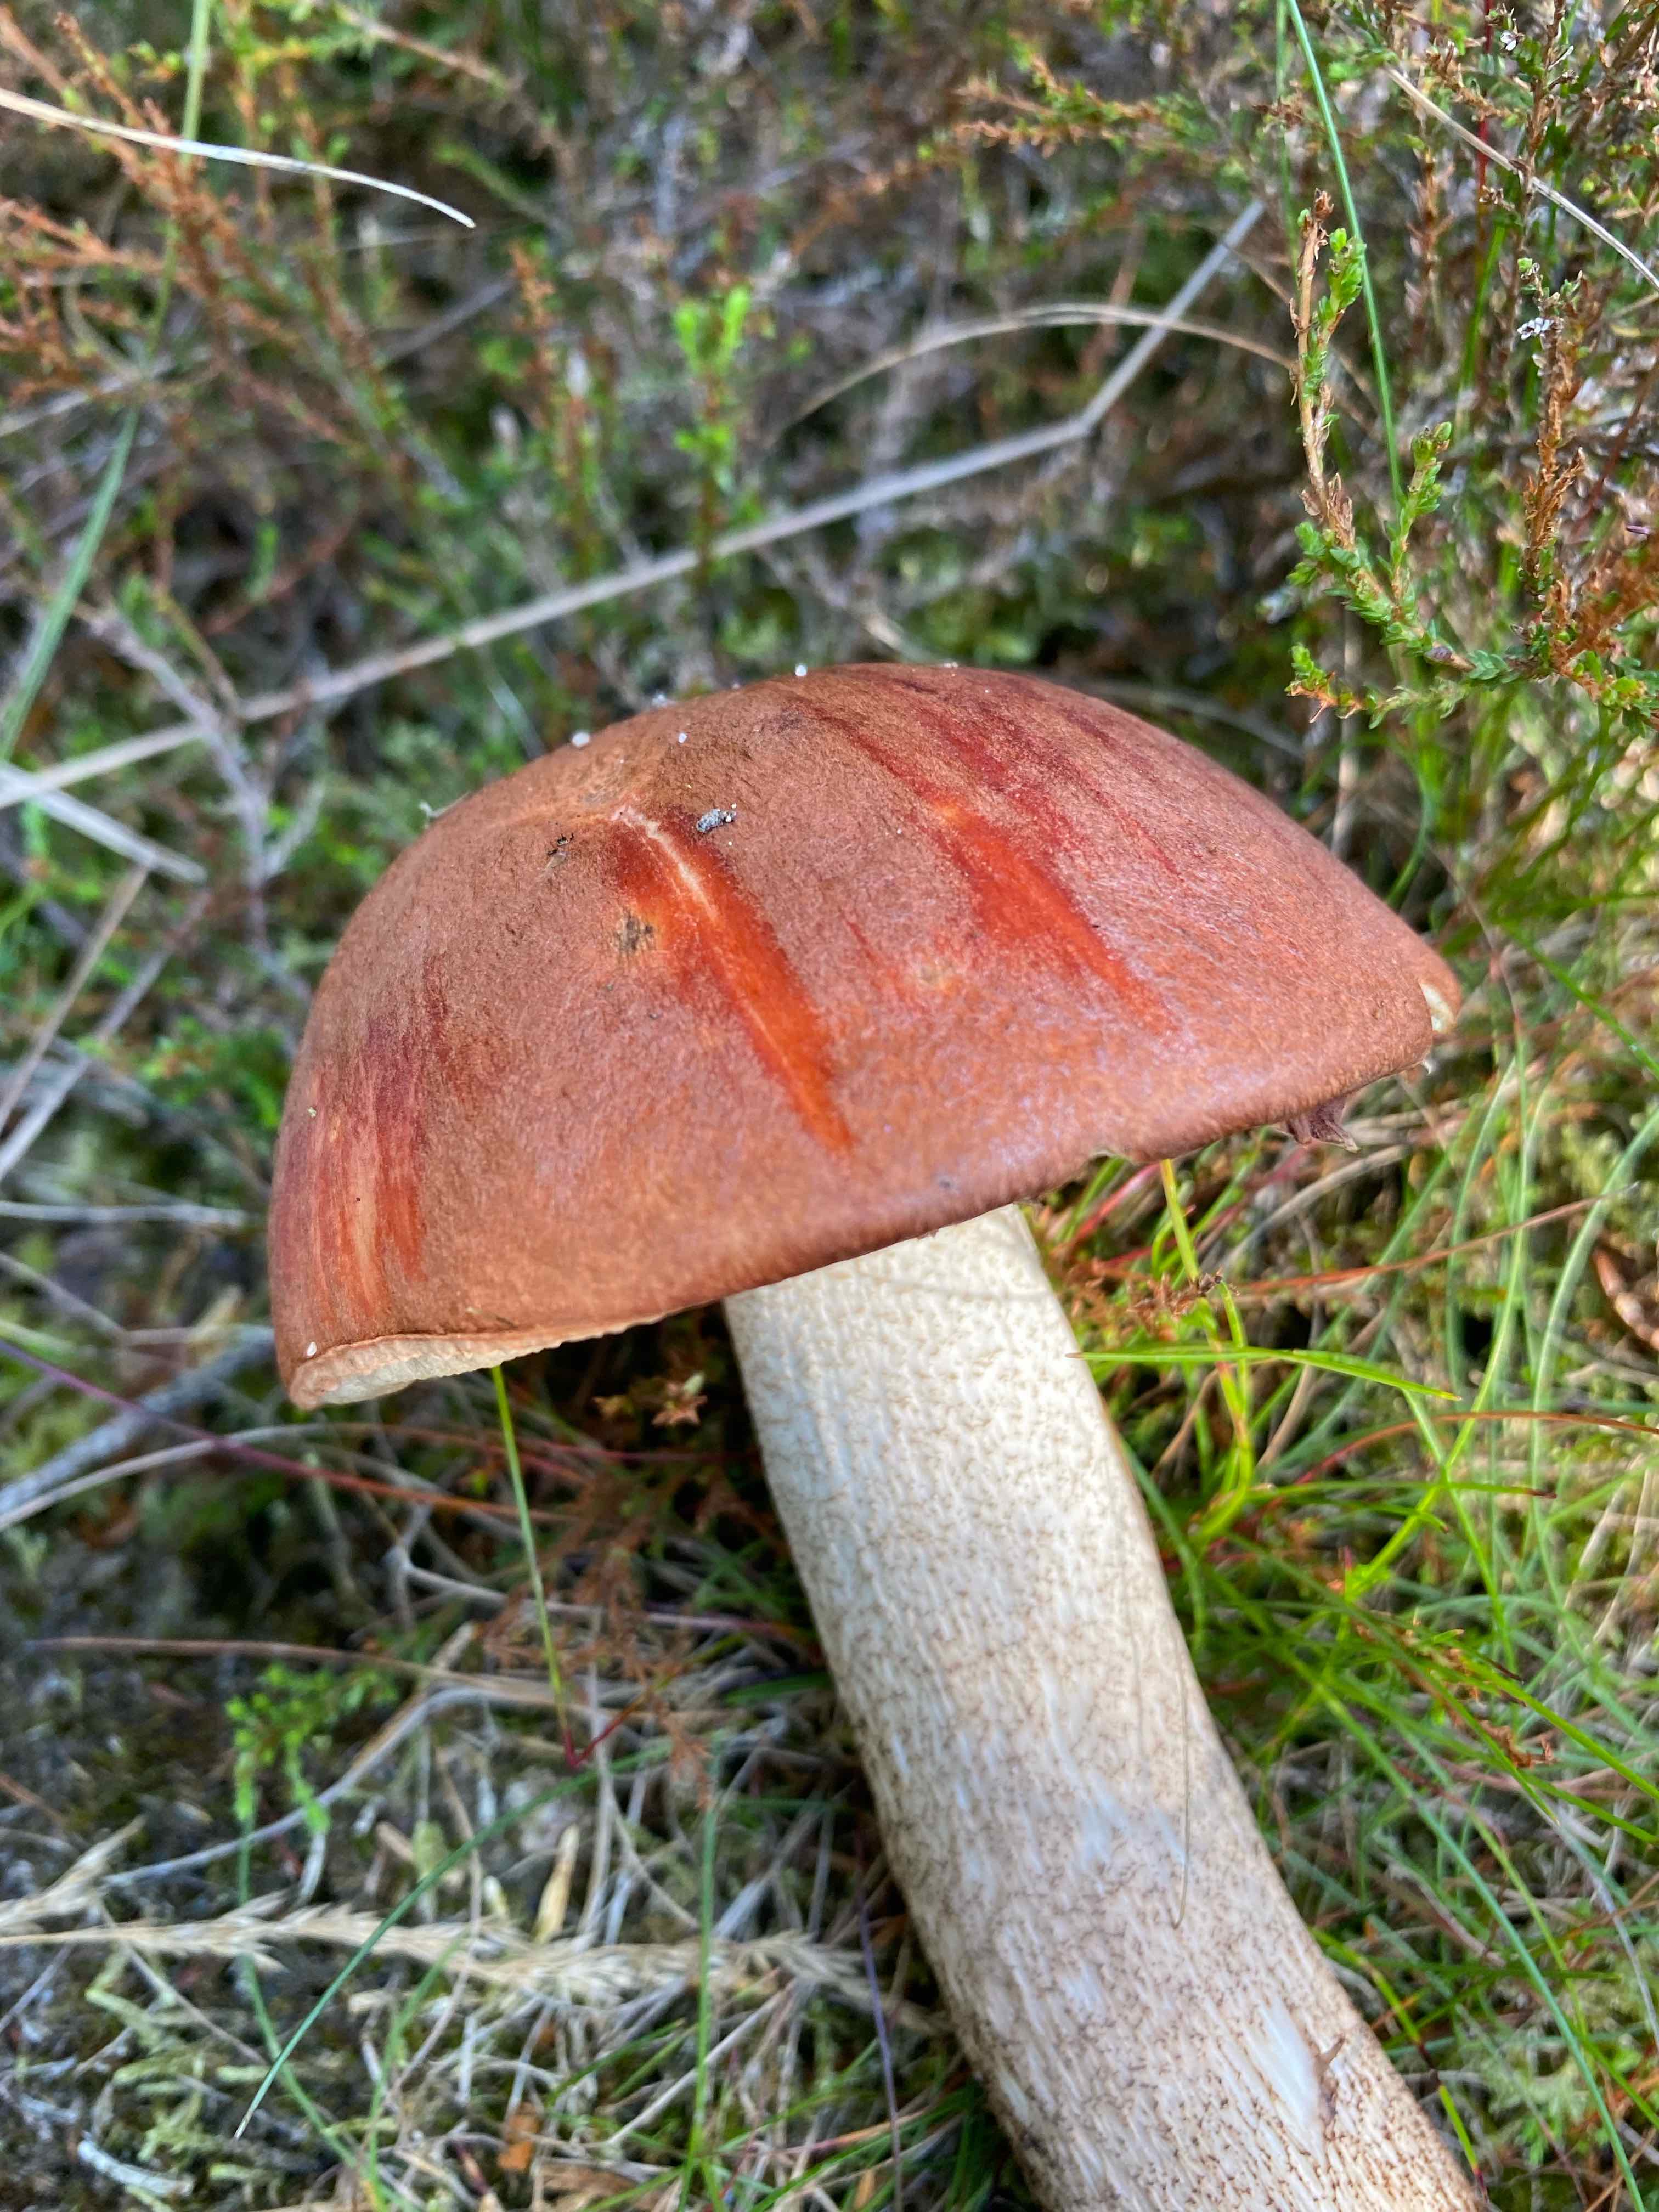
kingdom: Fungi
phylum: Basidiomycota
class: Agaricomycetes
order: Boletales
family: Boletaceae
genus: Leccinum
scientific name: Leccinum vulpinum
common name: fyrre-skælrørhat
